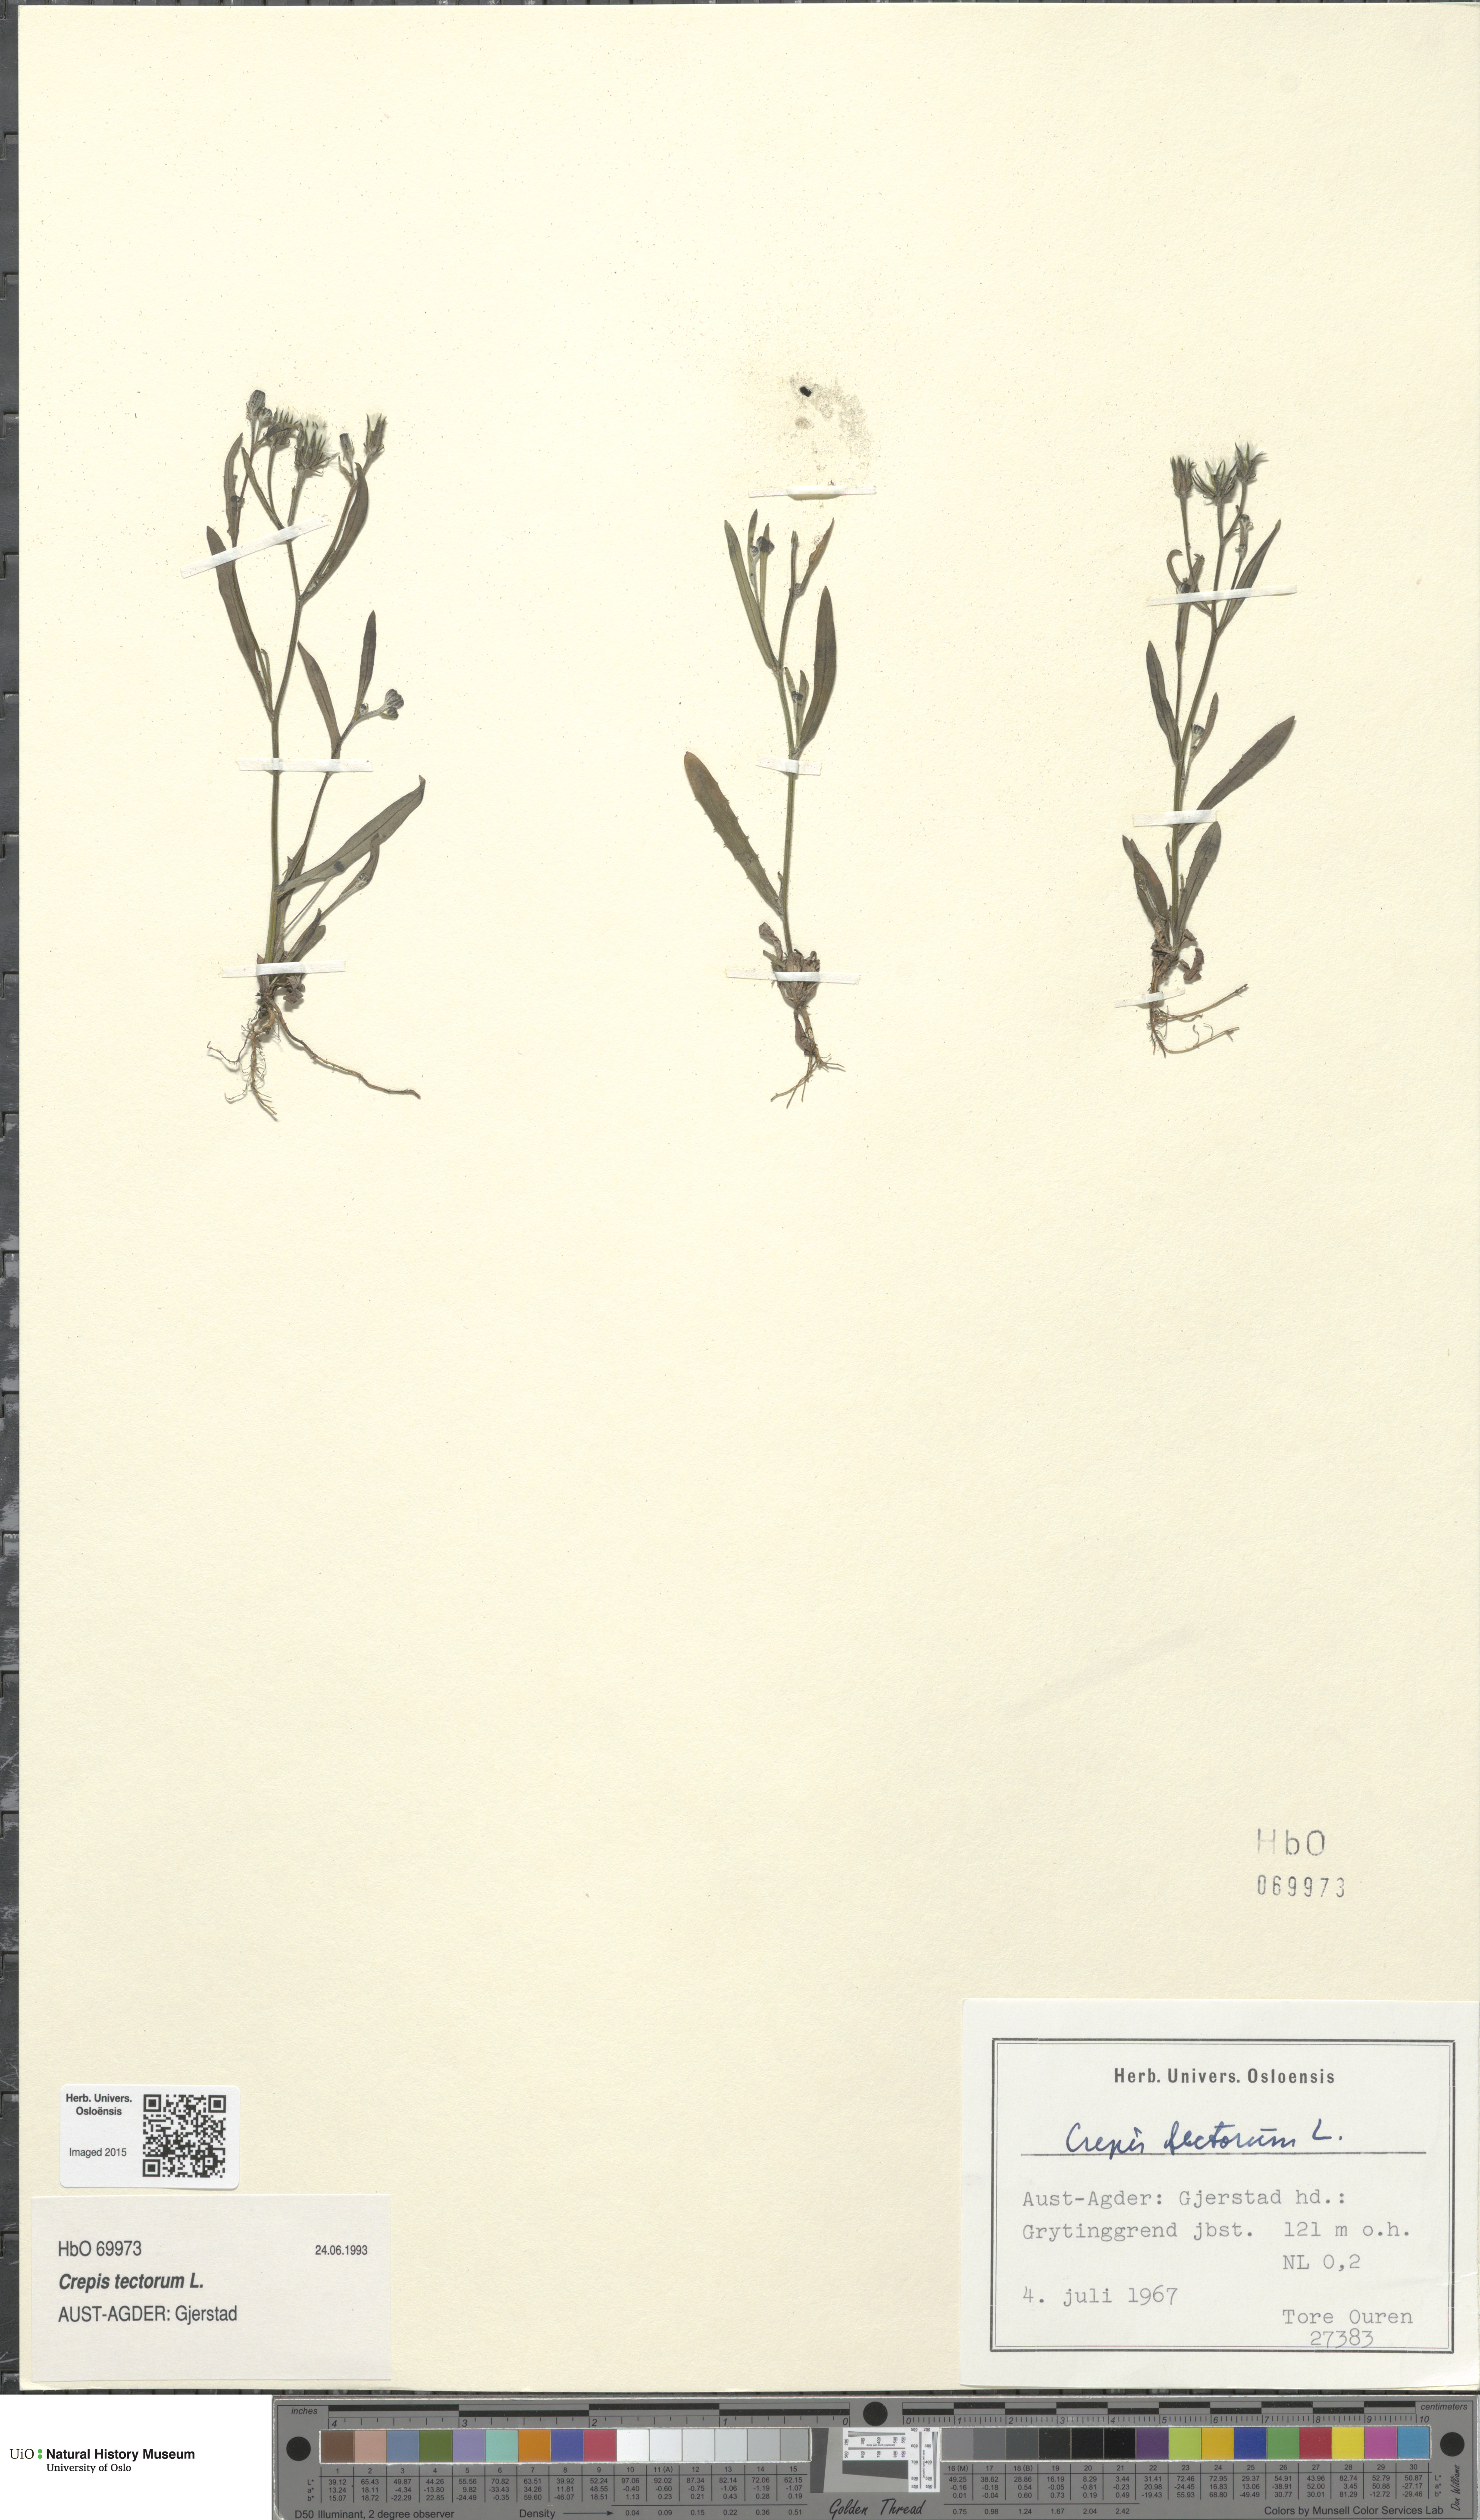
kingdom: Plantae
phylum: Tracheophyta
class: Magnoliopsida
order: Asterales
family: Asteraceae
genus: Crepis
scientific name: Crepis tectorum
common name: Narrow-leaved hawk's-beard
